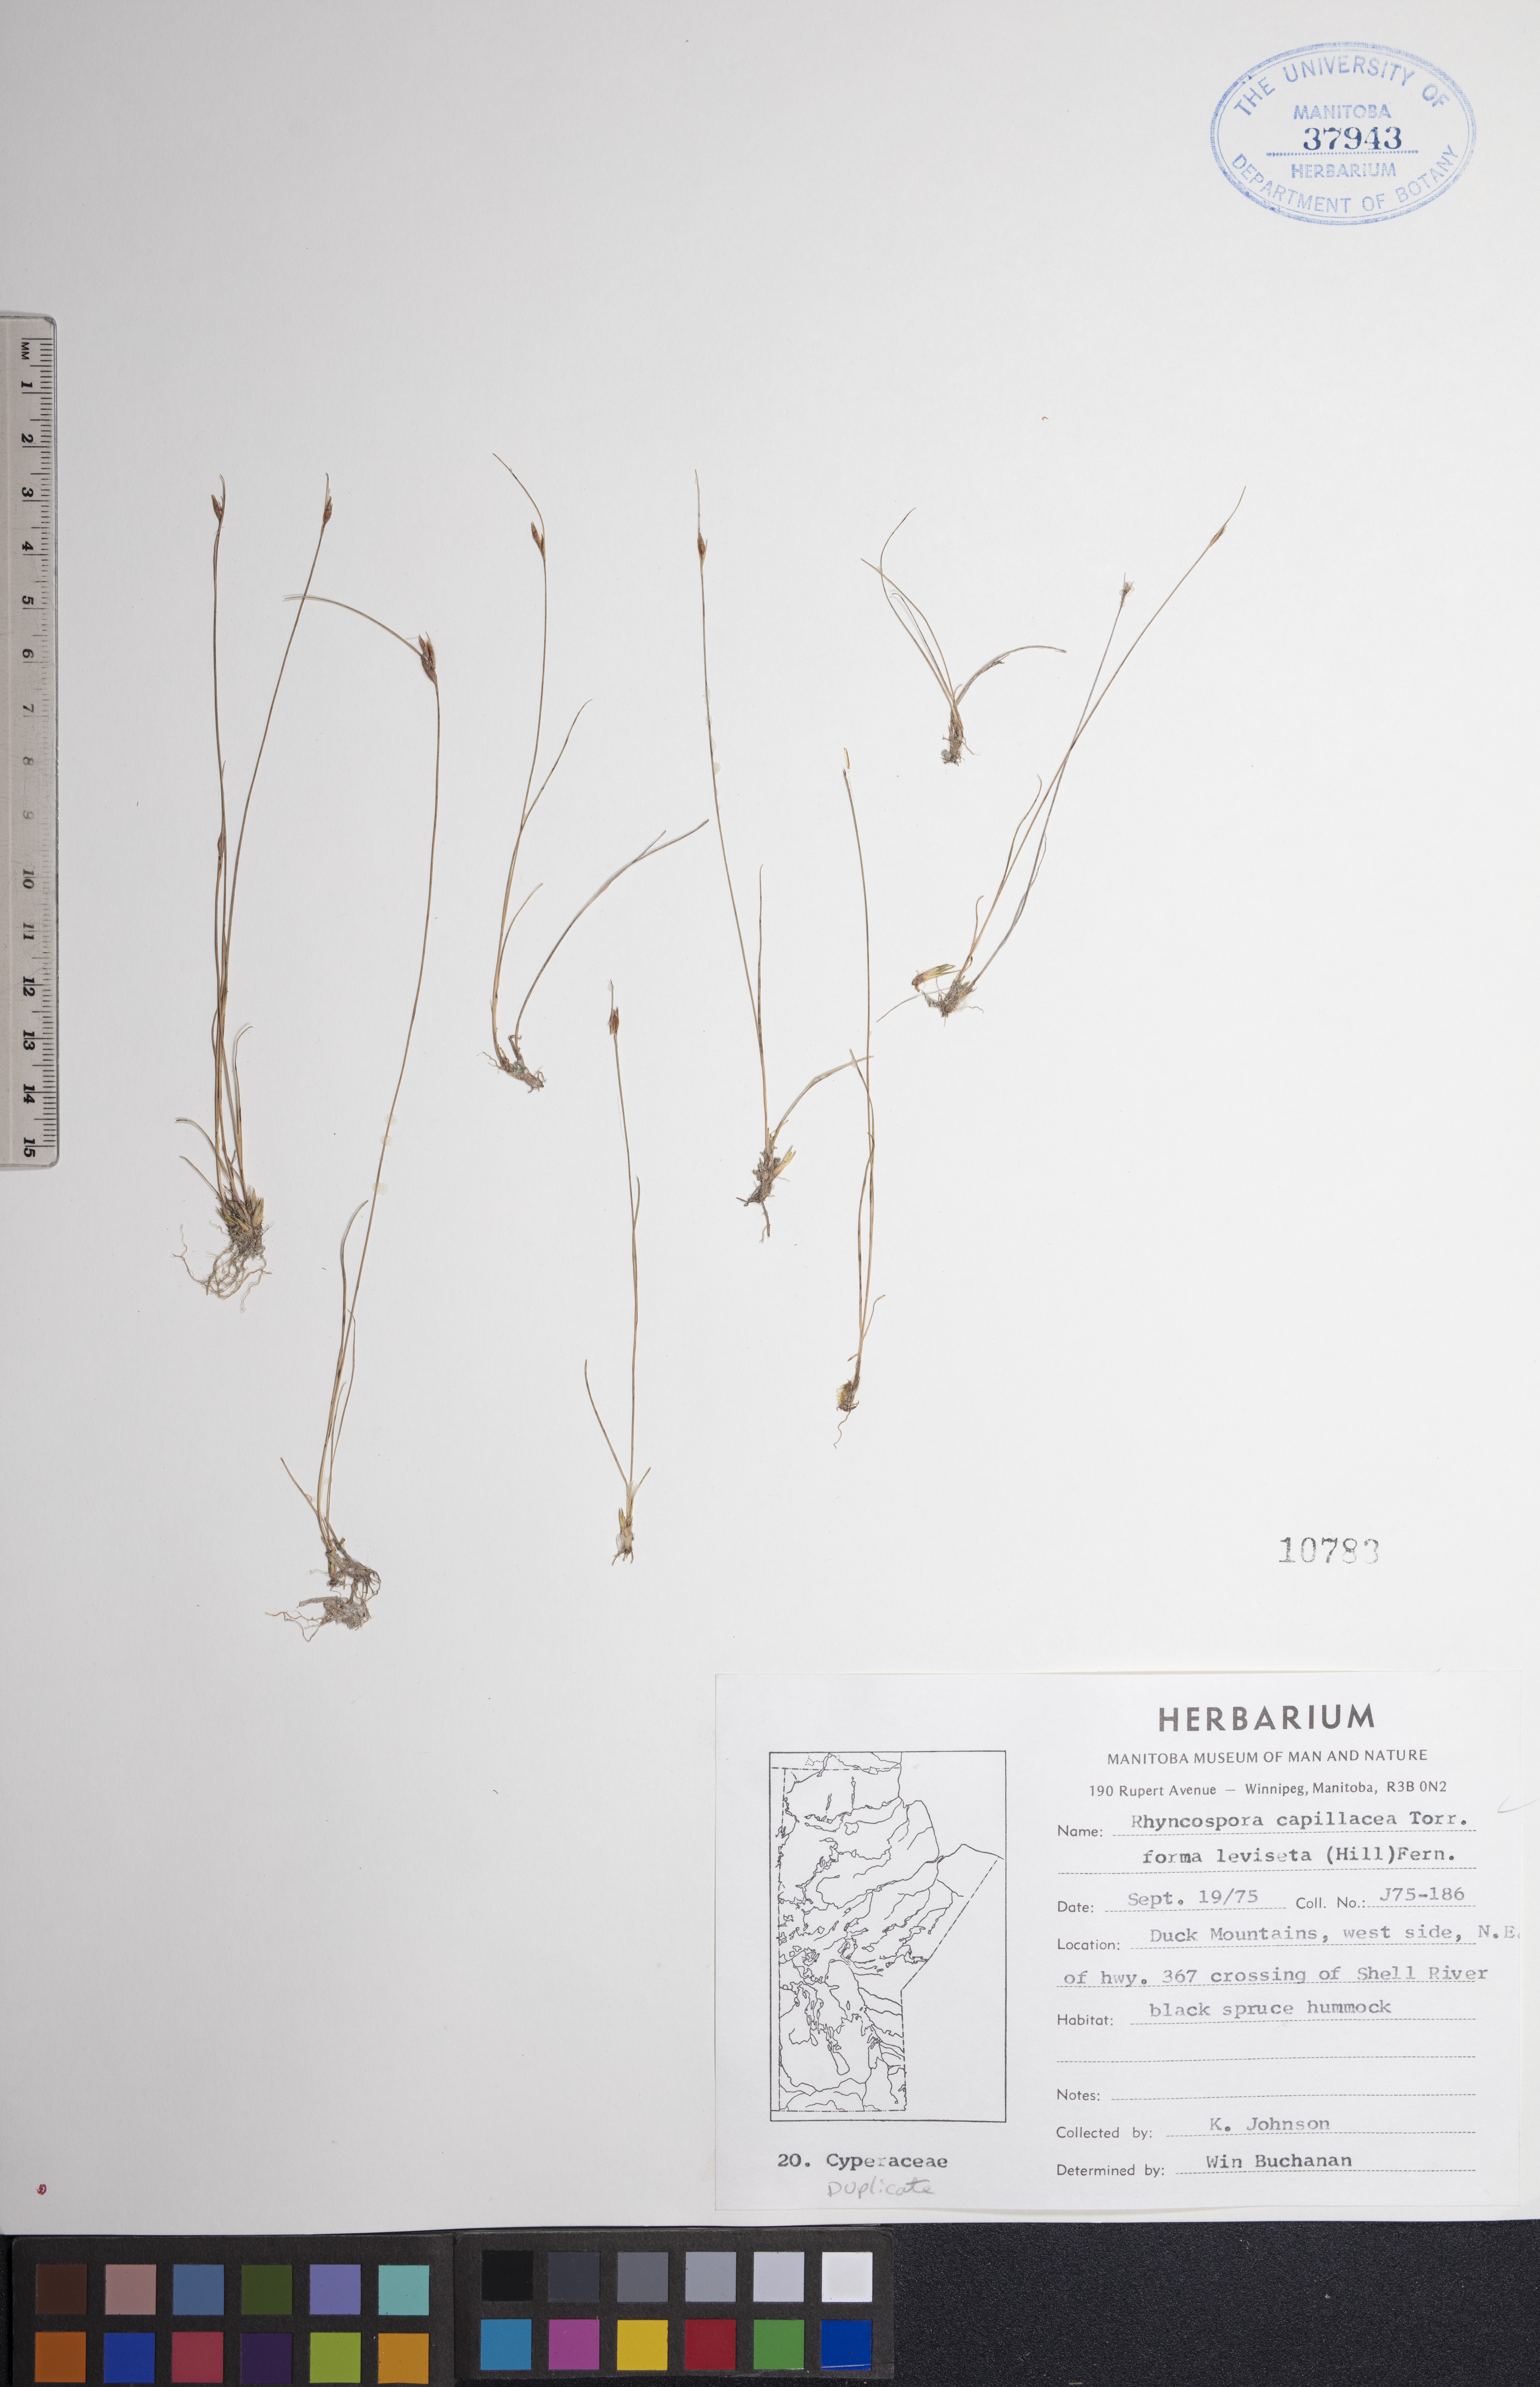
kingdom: Plantae
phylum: Tracheophyta
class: Liliopsida
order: Poales
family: Cyperaceae
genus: Rhynchospora
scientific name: Rhynchospora capillacea
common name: Capillary beakrush
